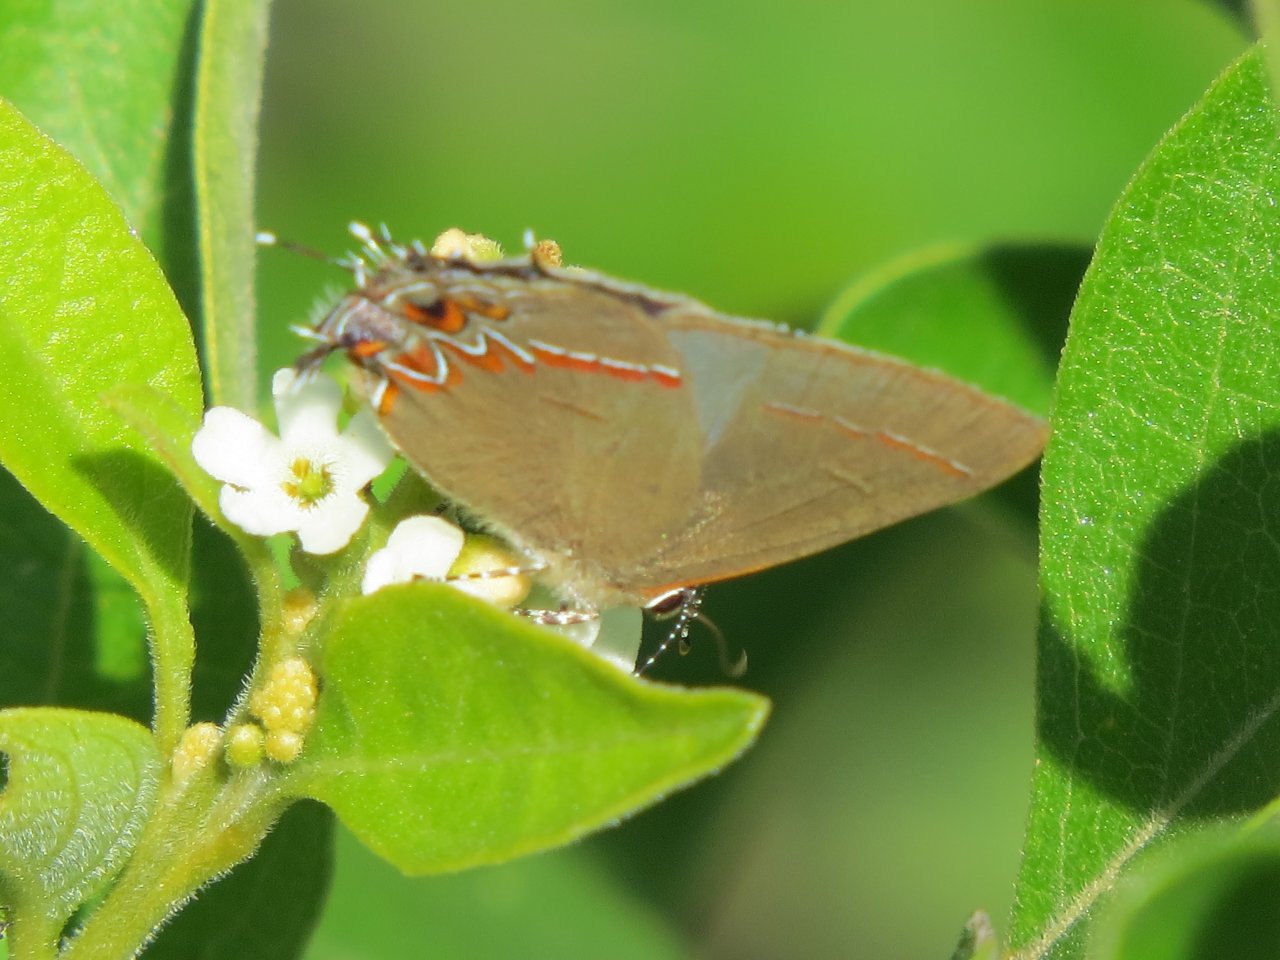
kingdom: Animalia
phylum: Arthropoda
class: Insecta
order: Lepidoptera
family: Lycaenidae
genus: Calycopis
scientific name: Calycopis isobeon
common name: Dusky-blue Groundstreak
